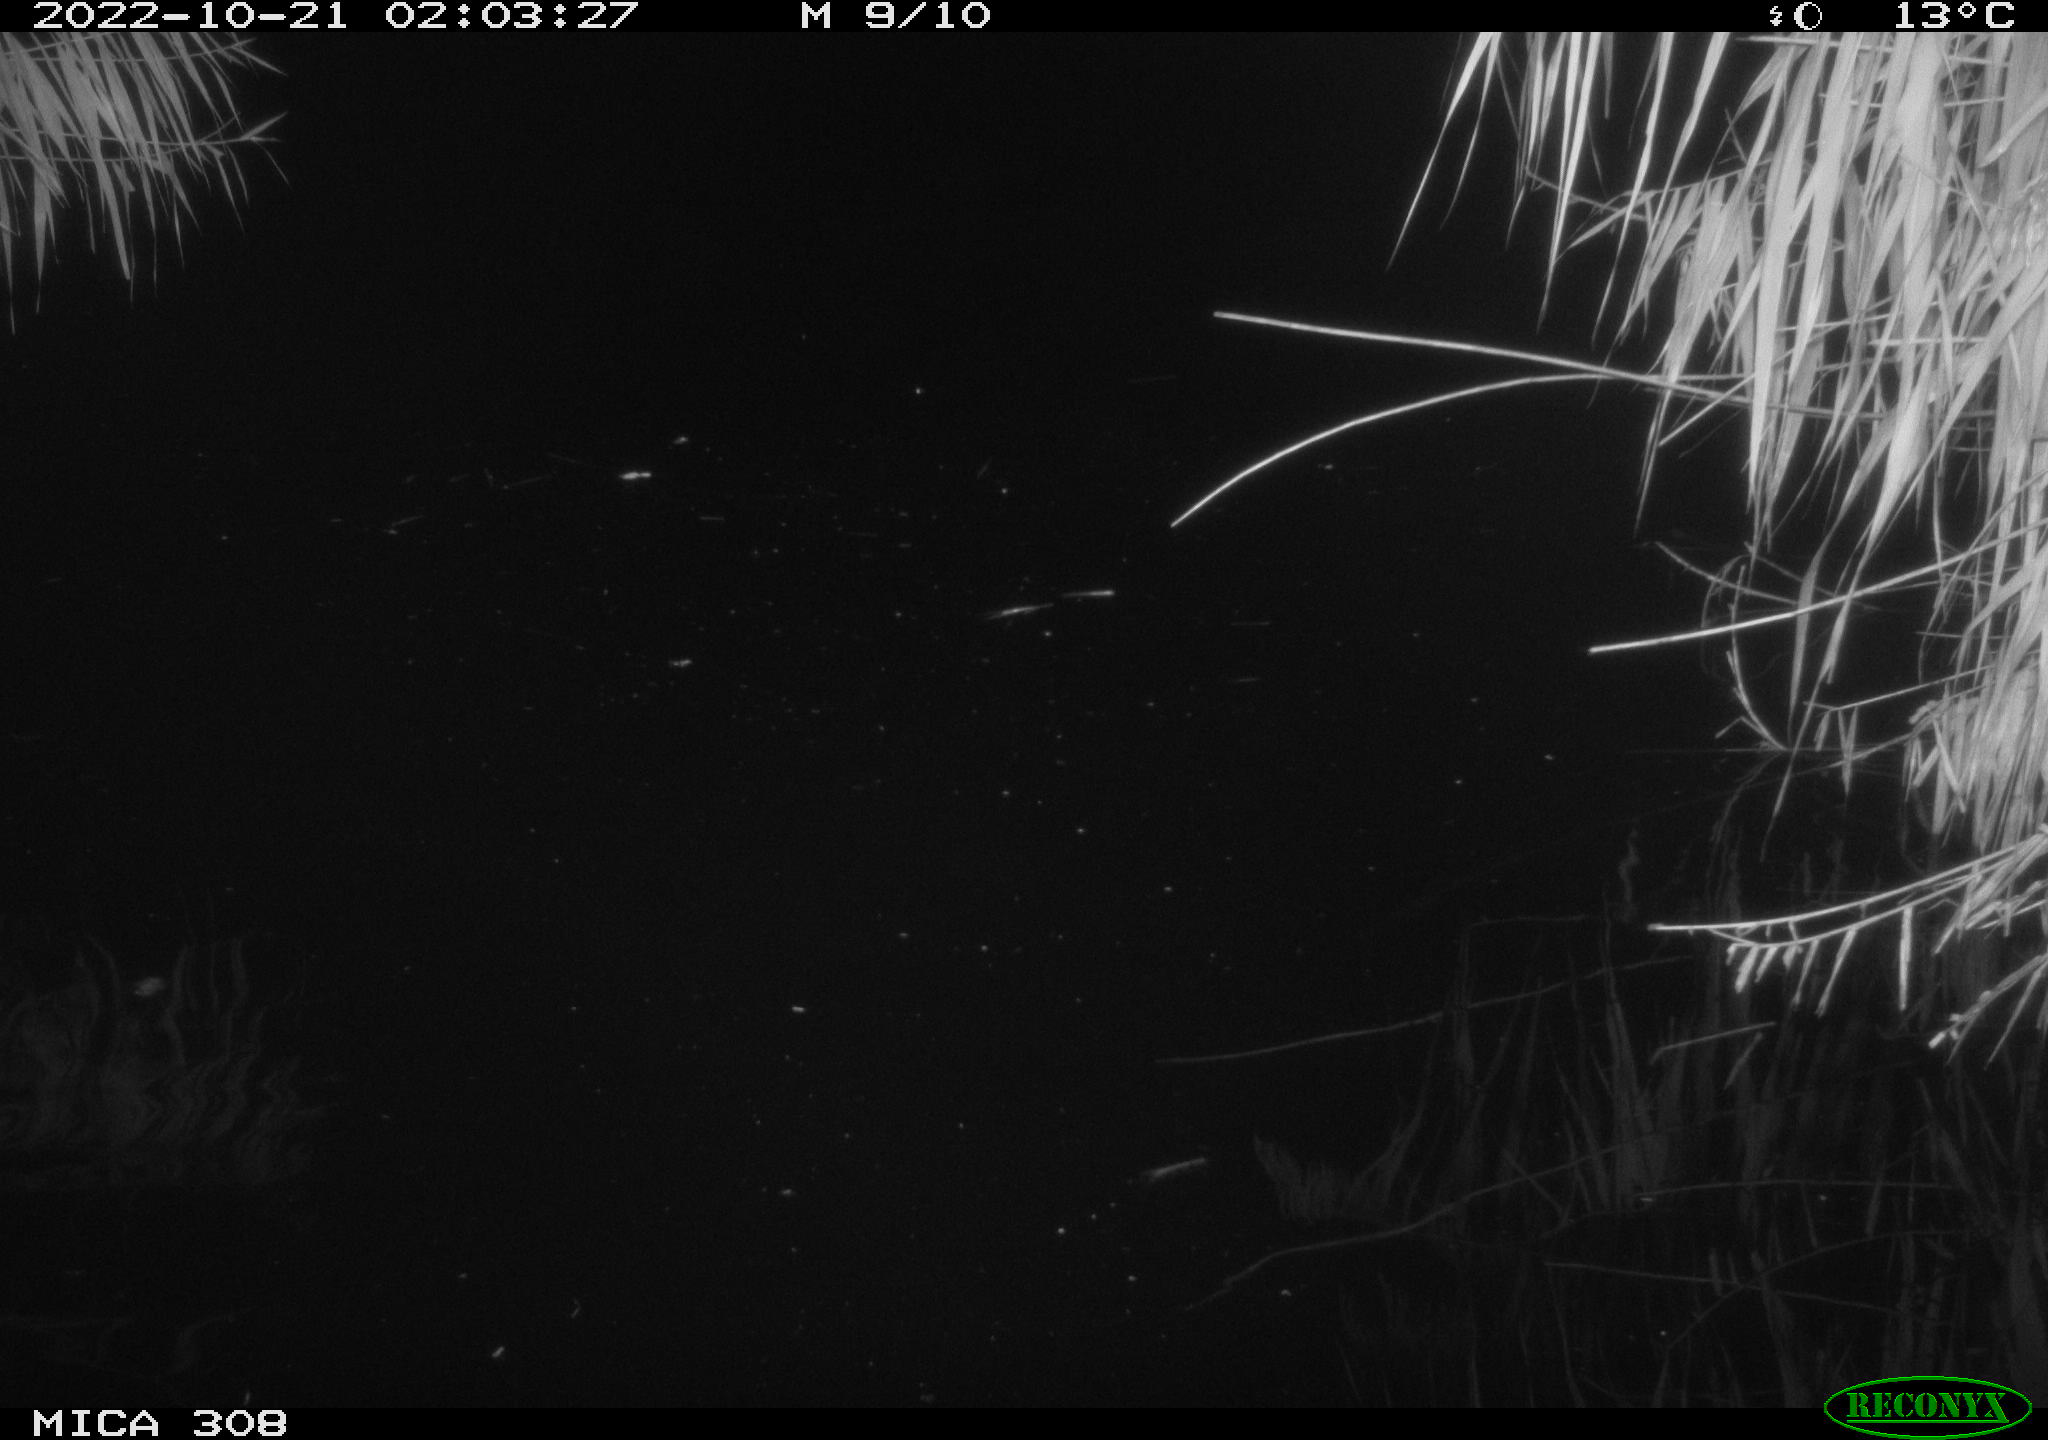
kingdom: Animalia
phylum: Chordata
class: Mammalia
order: Rodentia
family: Cricetidae
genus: Ondatra
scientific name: Ondatra zibethicus
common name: Muskrat
